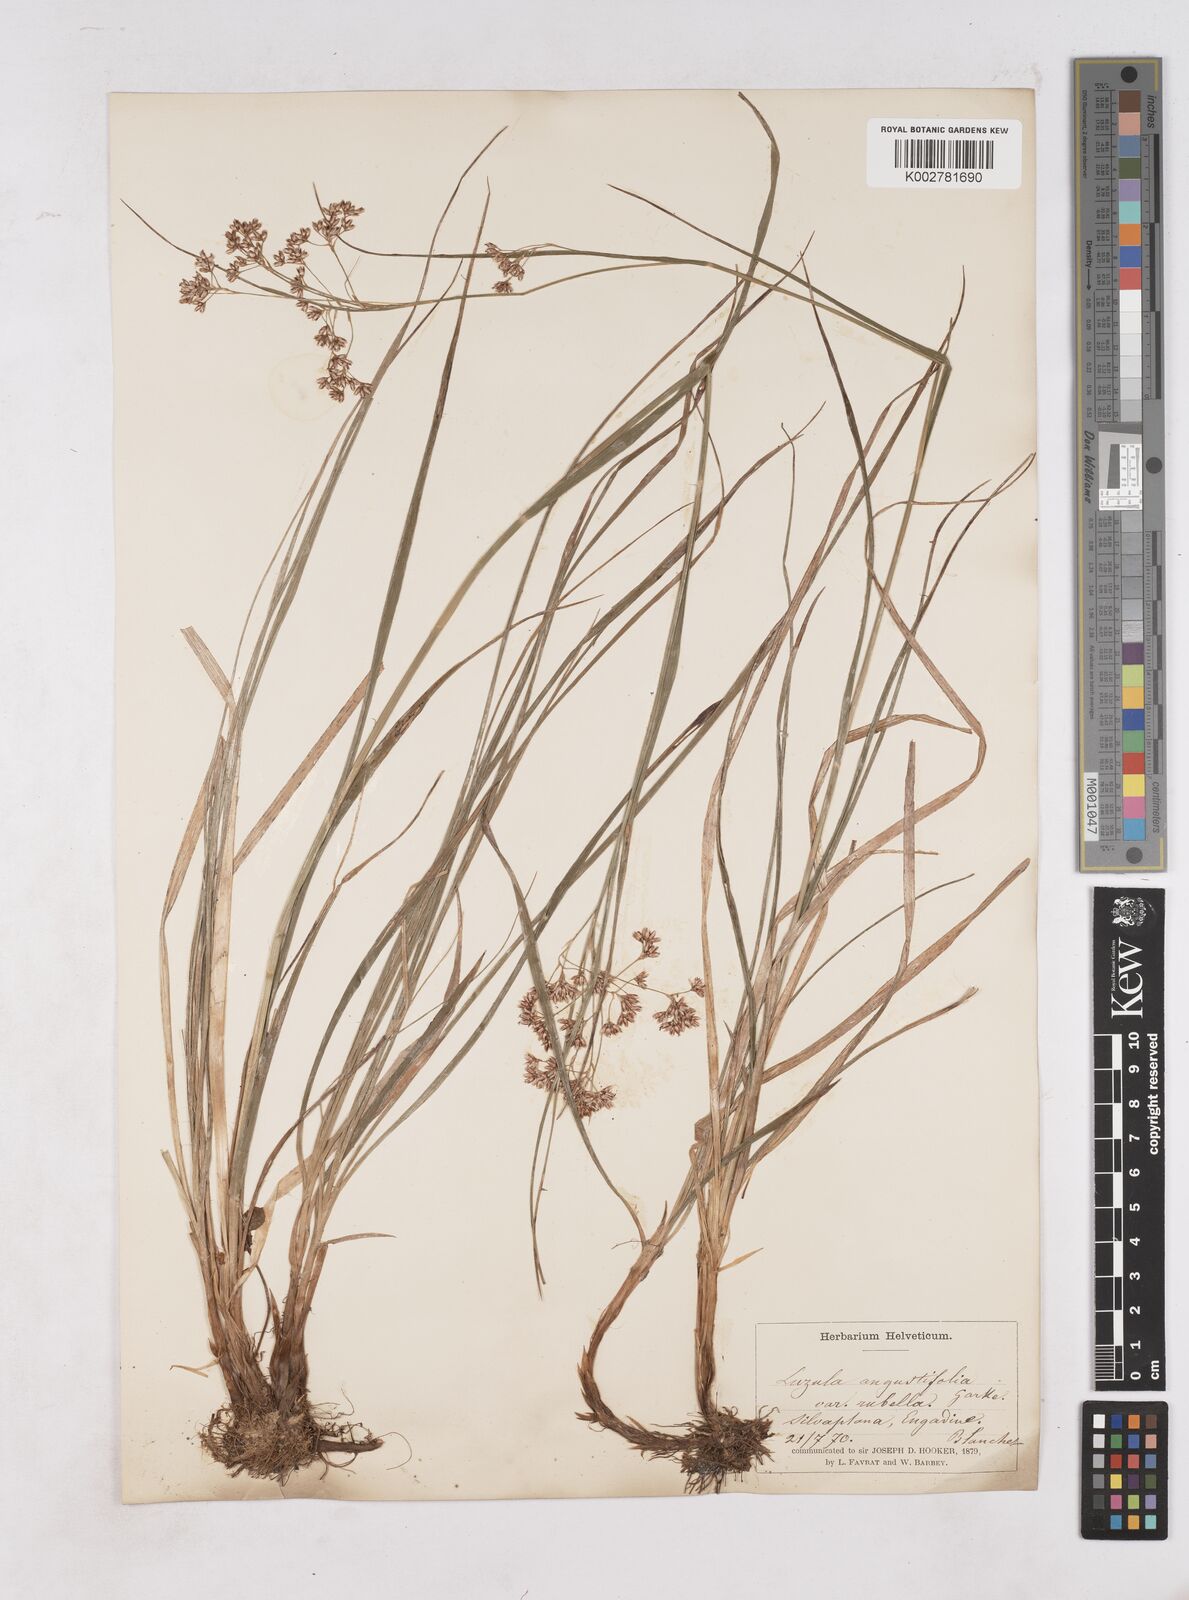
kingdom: Plantae
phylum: Tracheophyta
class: Liliopsida
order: Poales
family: Juncaceae
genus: Luzula
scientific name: Luzula luzuloides
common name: White wood-rush
